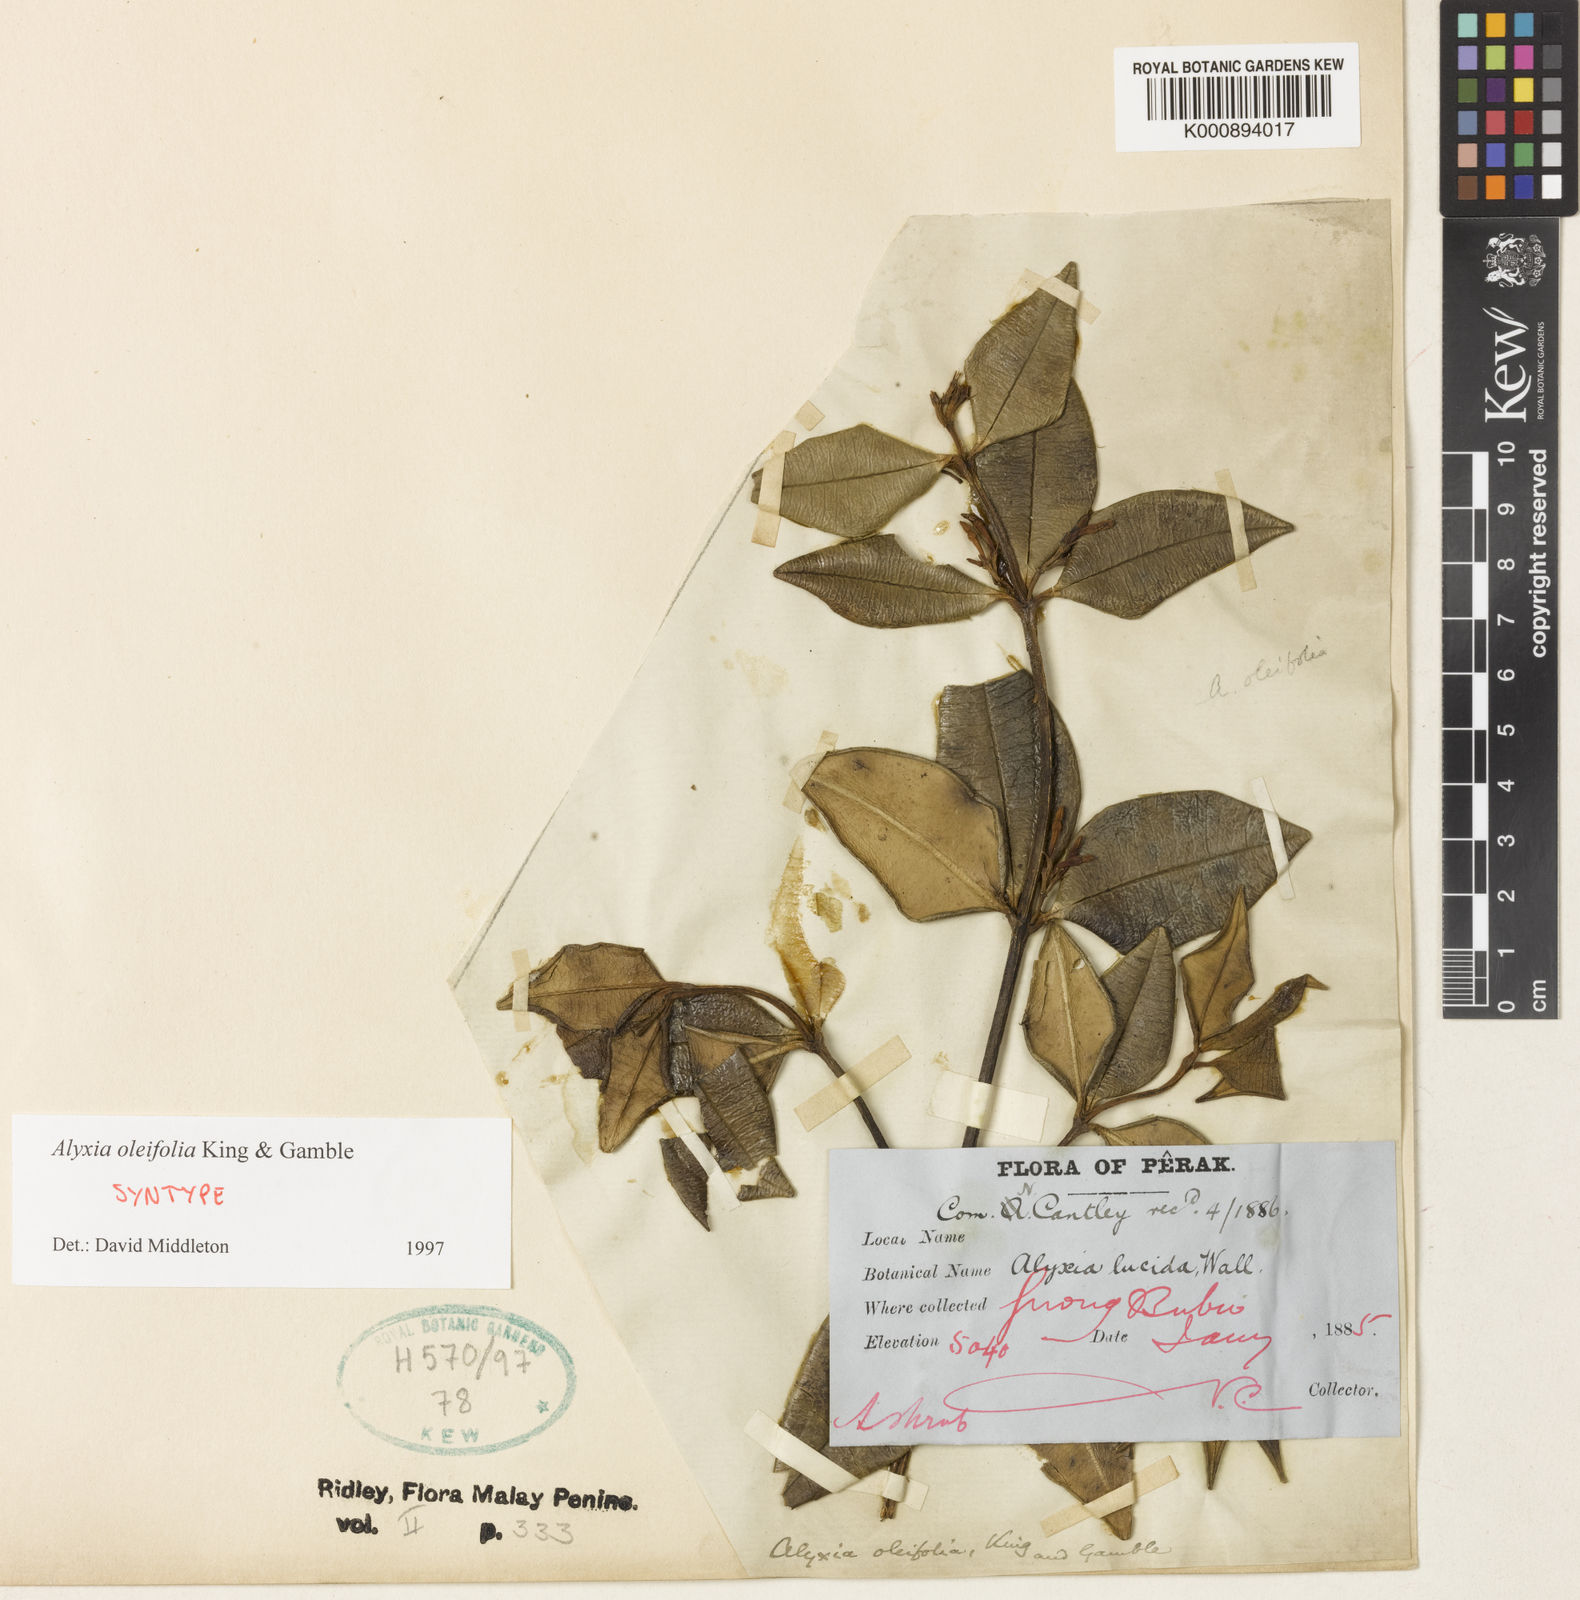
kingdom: Plantae
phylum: Tracheophyta
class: Magnoliopsida
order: Gentianales
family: Apocynaceae
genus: Alyxia
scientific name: Alyxia oleifolia
